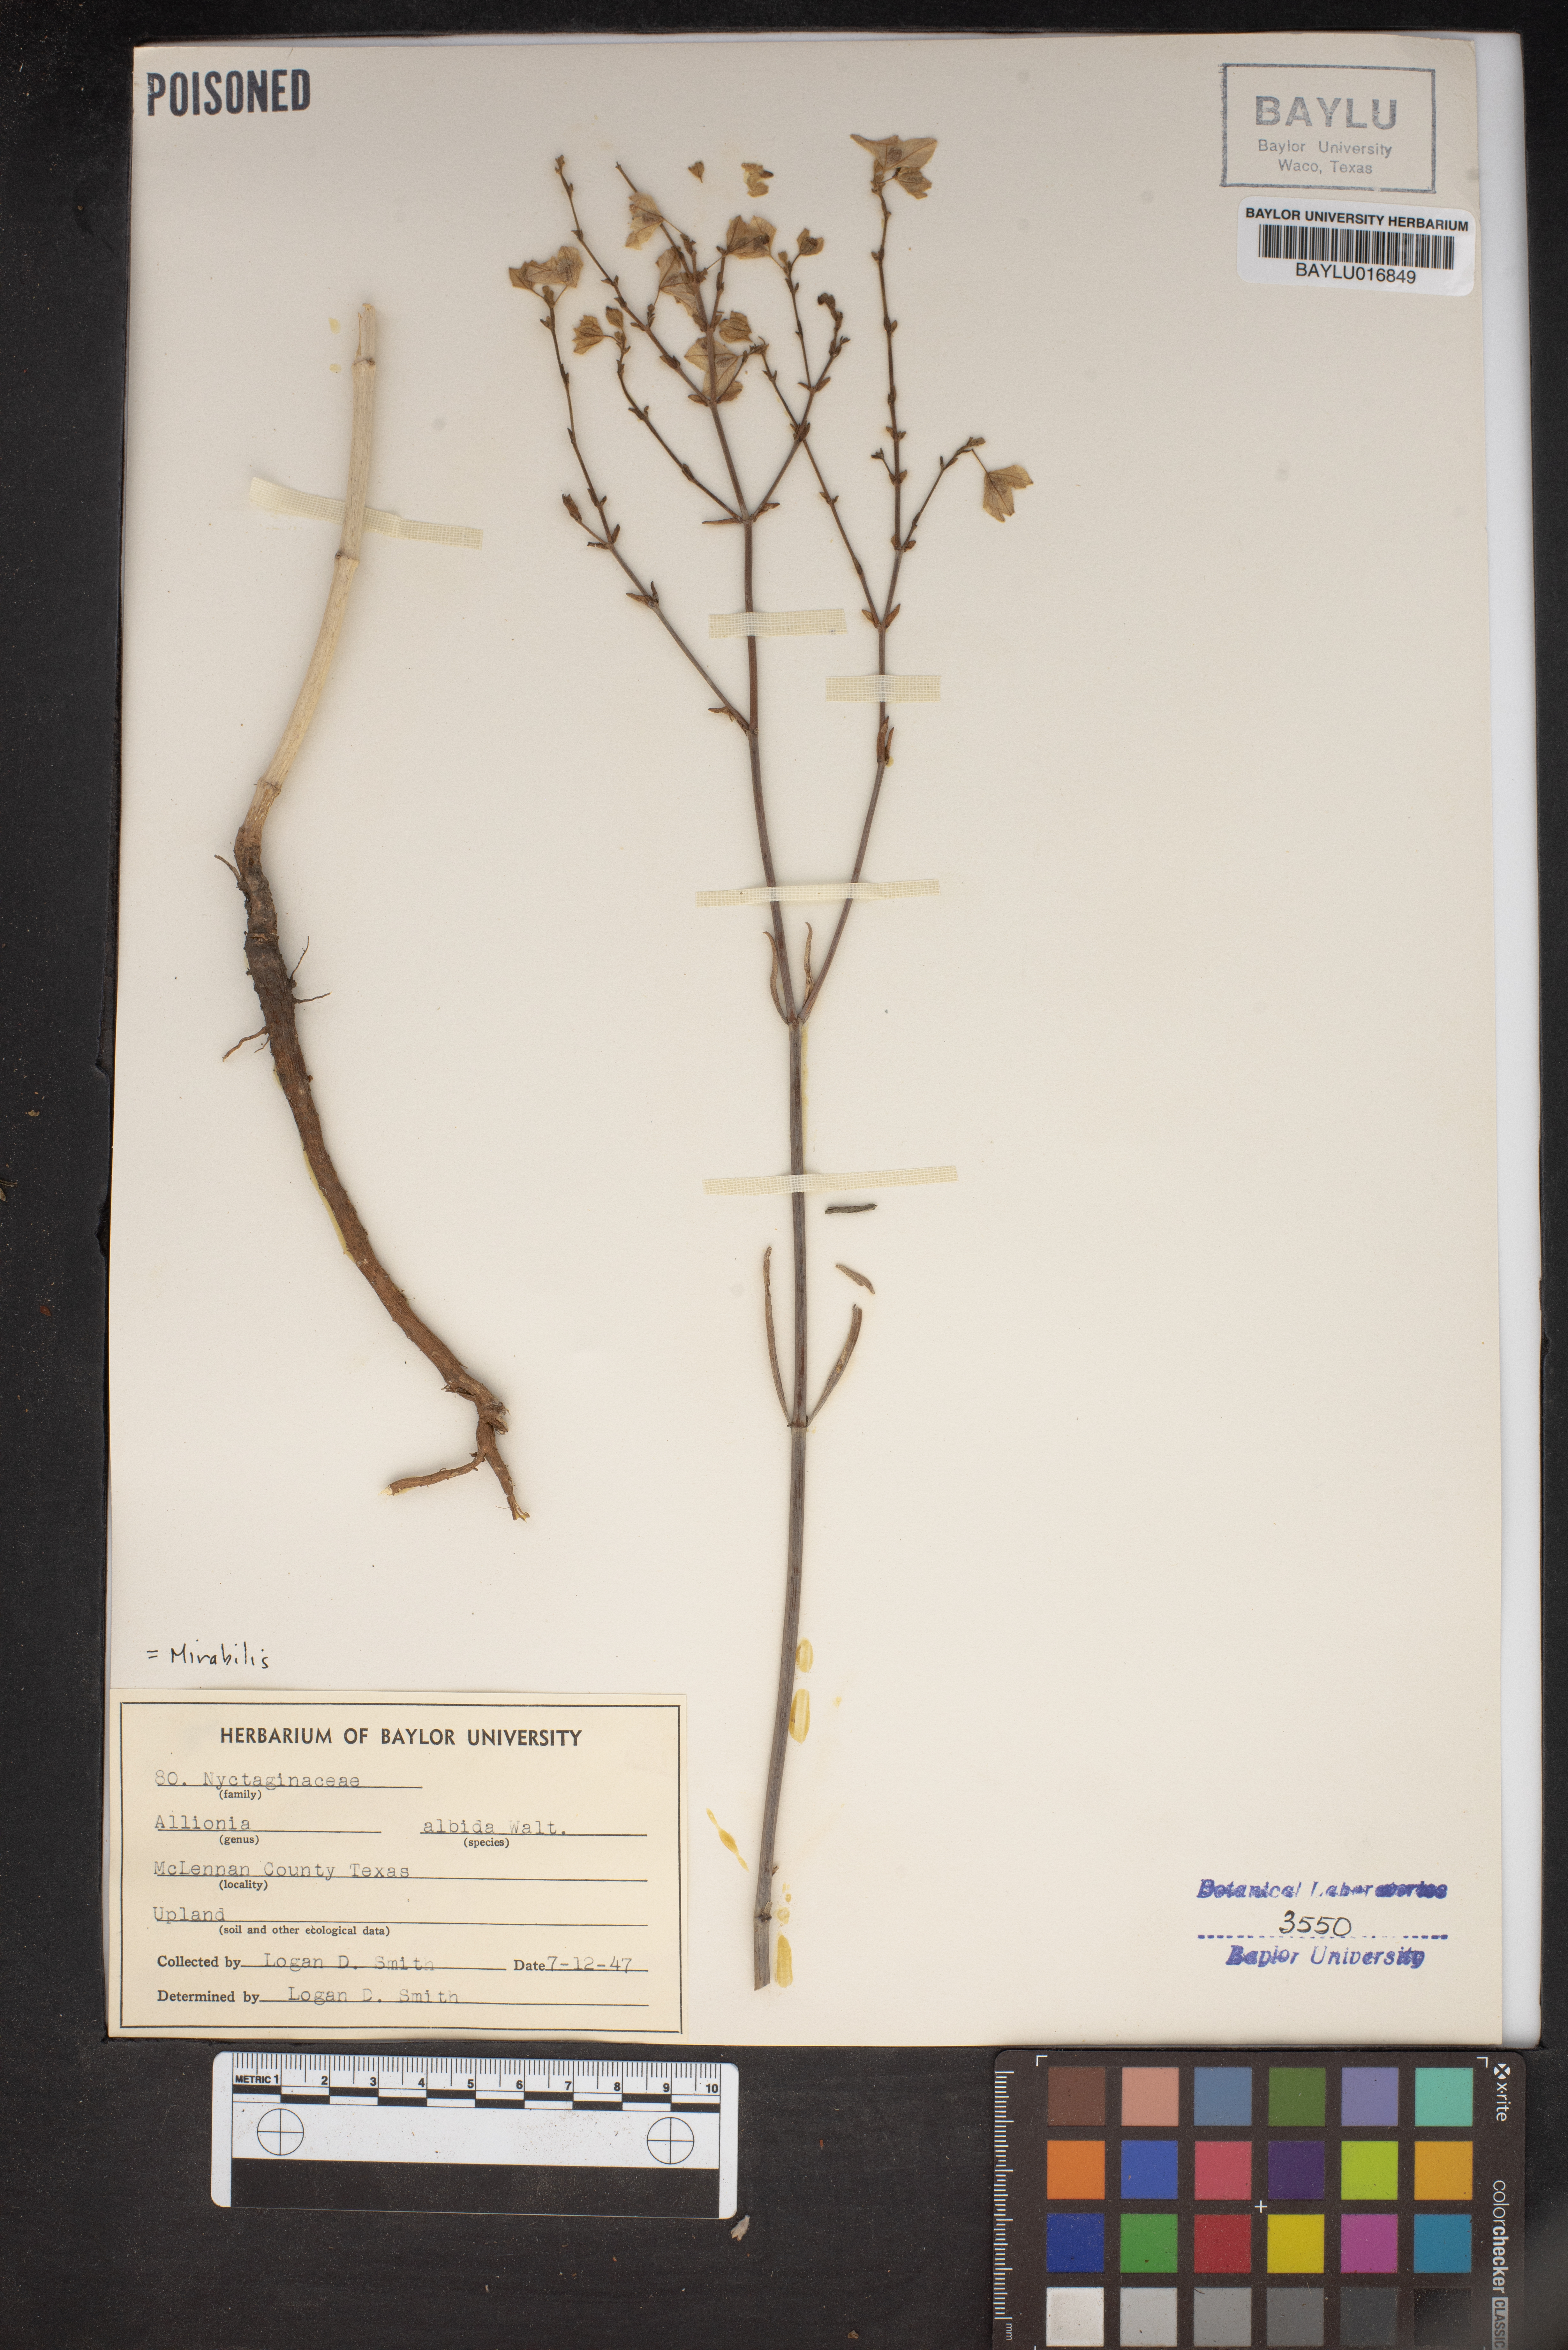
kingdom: Plantae
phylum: Tracheophyta
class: Magnoliopsida
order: Caryophyllales
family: Nyctaginaceae
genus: Mirabilis
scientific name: Mirabilis albida
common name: Hairy four-o'clock
